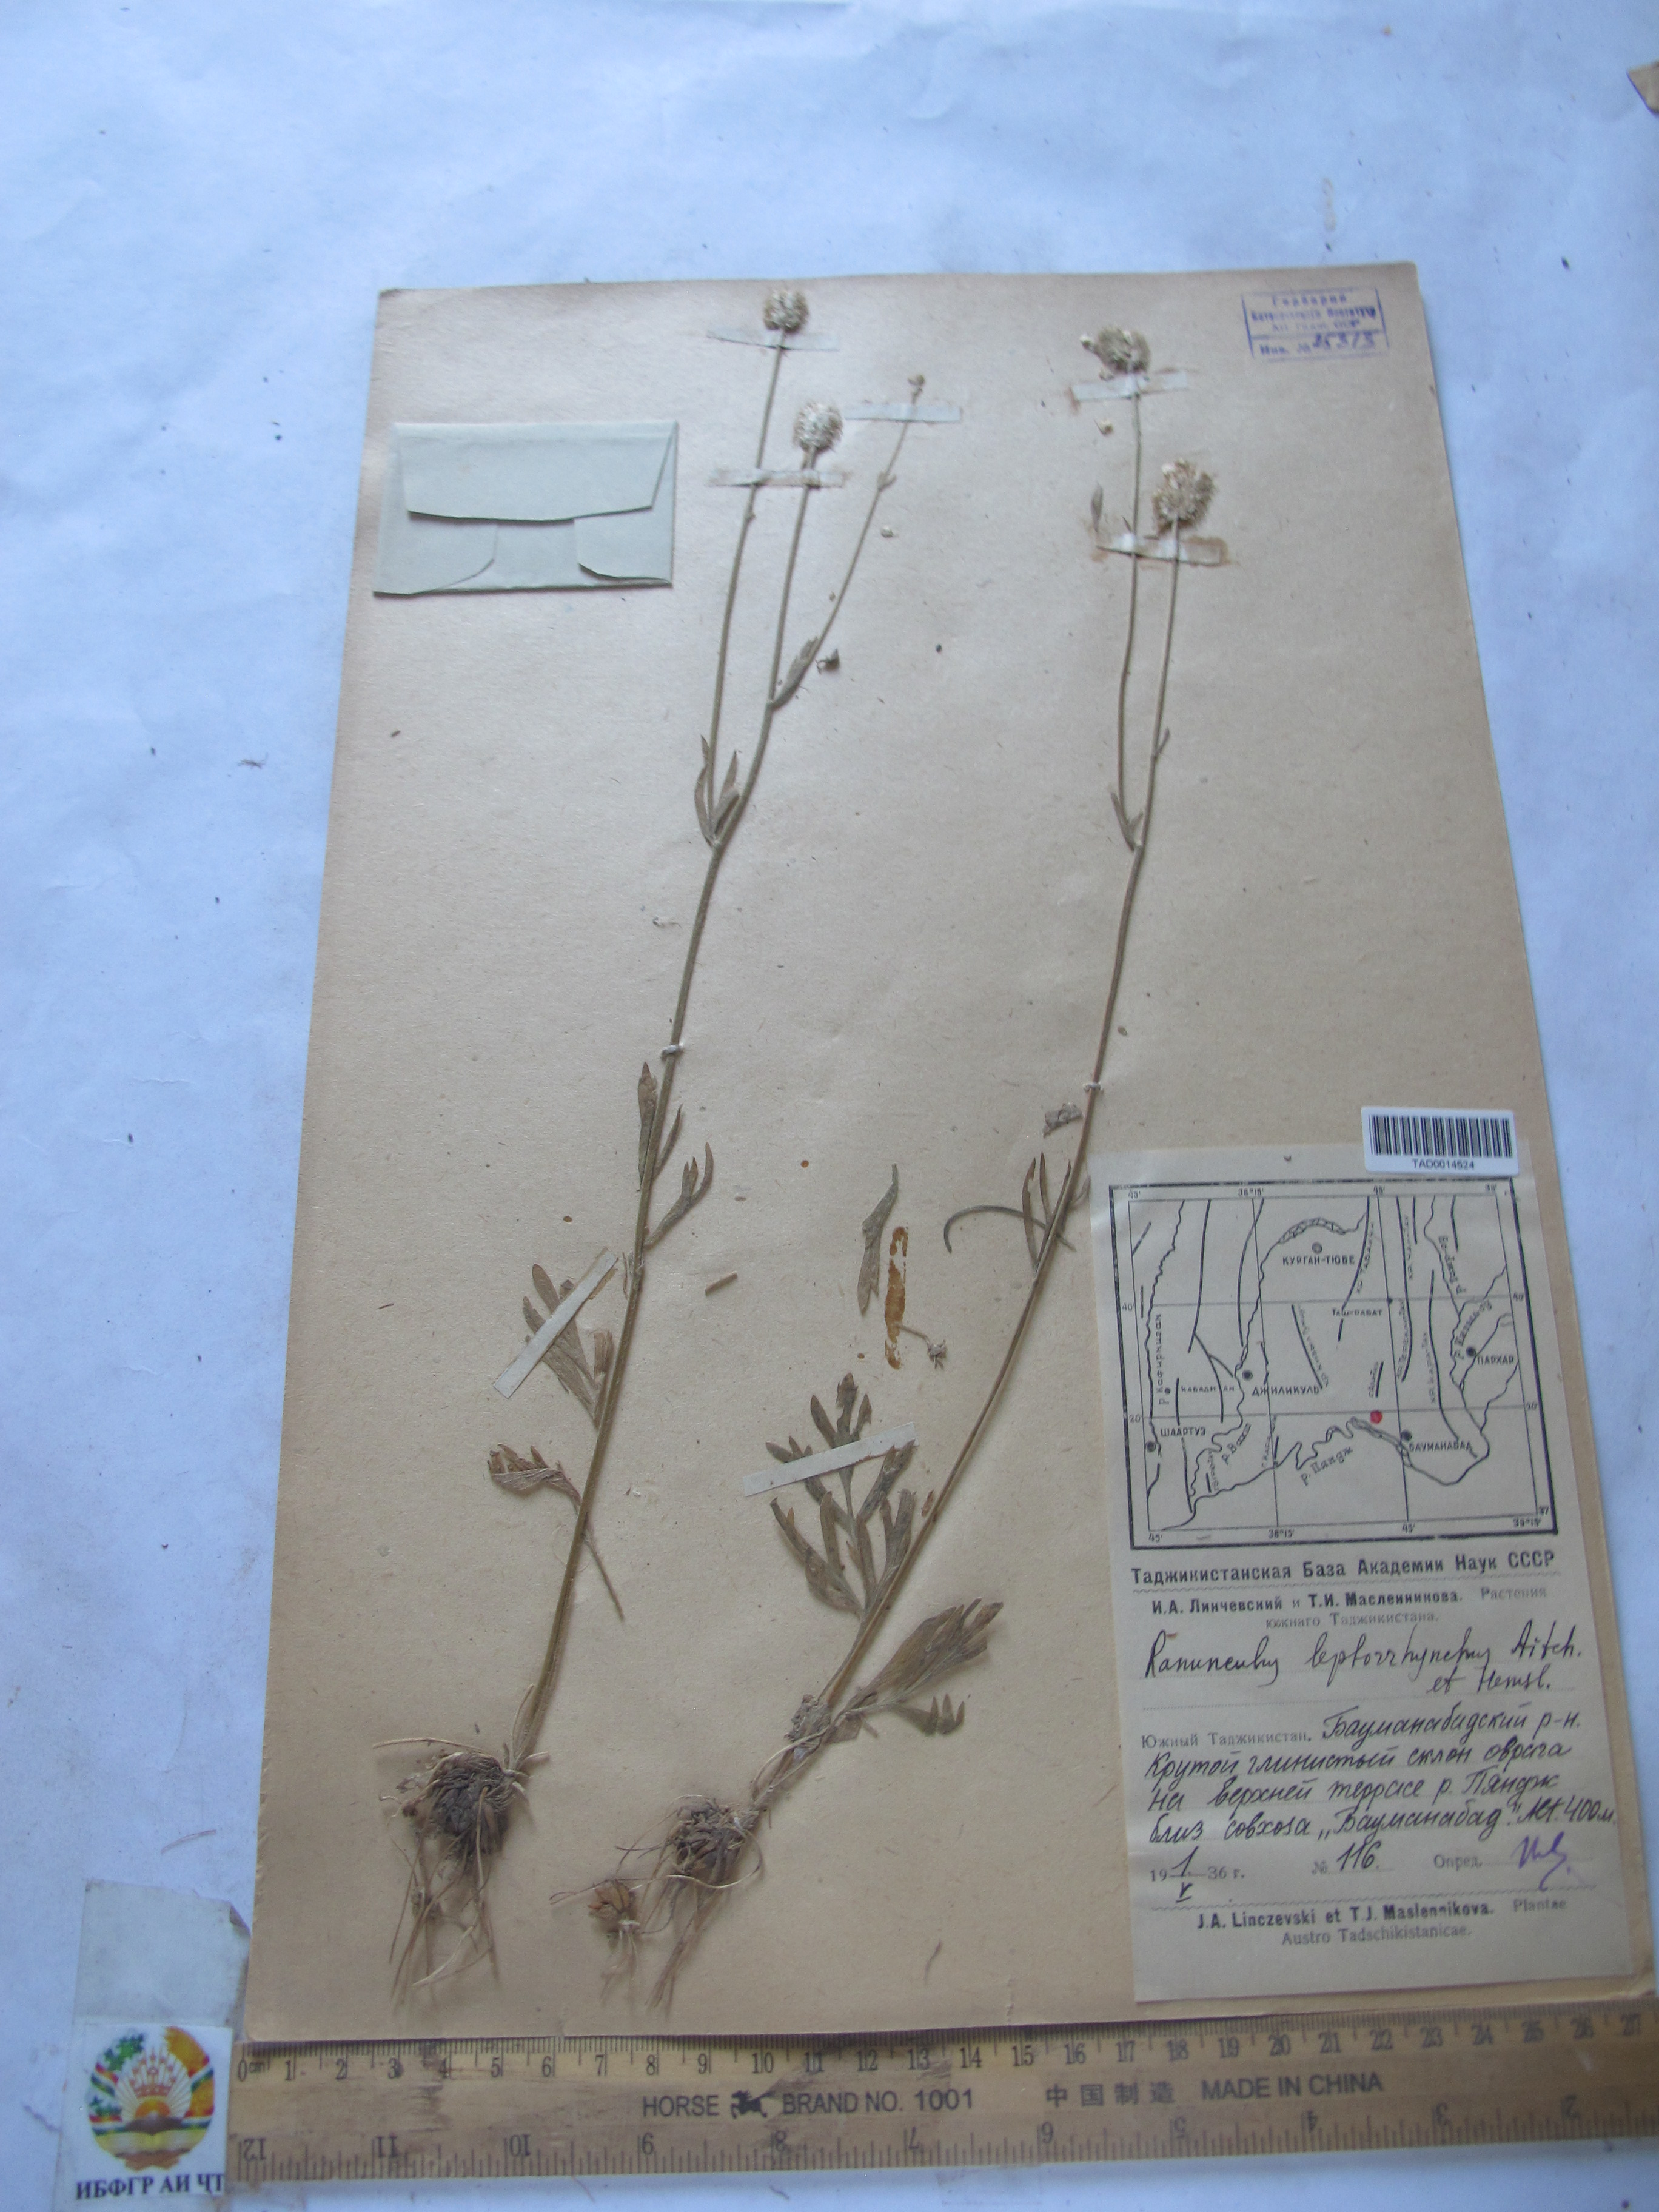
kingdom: Plantae
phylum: Tracheophyta
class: Magnoliopsida
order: Ranunculales
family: Ranunculaceae
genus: Ranunculus
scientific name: Ranunculus leptorrhynchus
